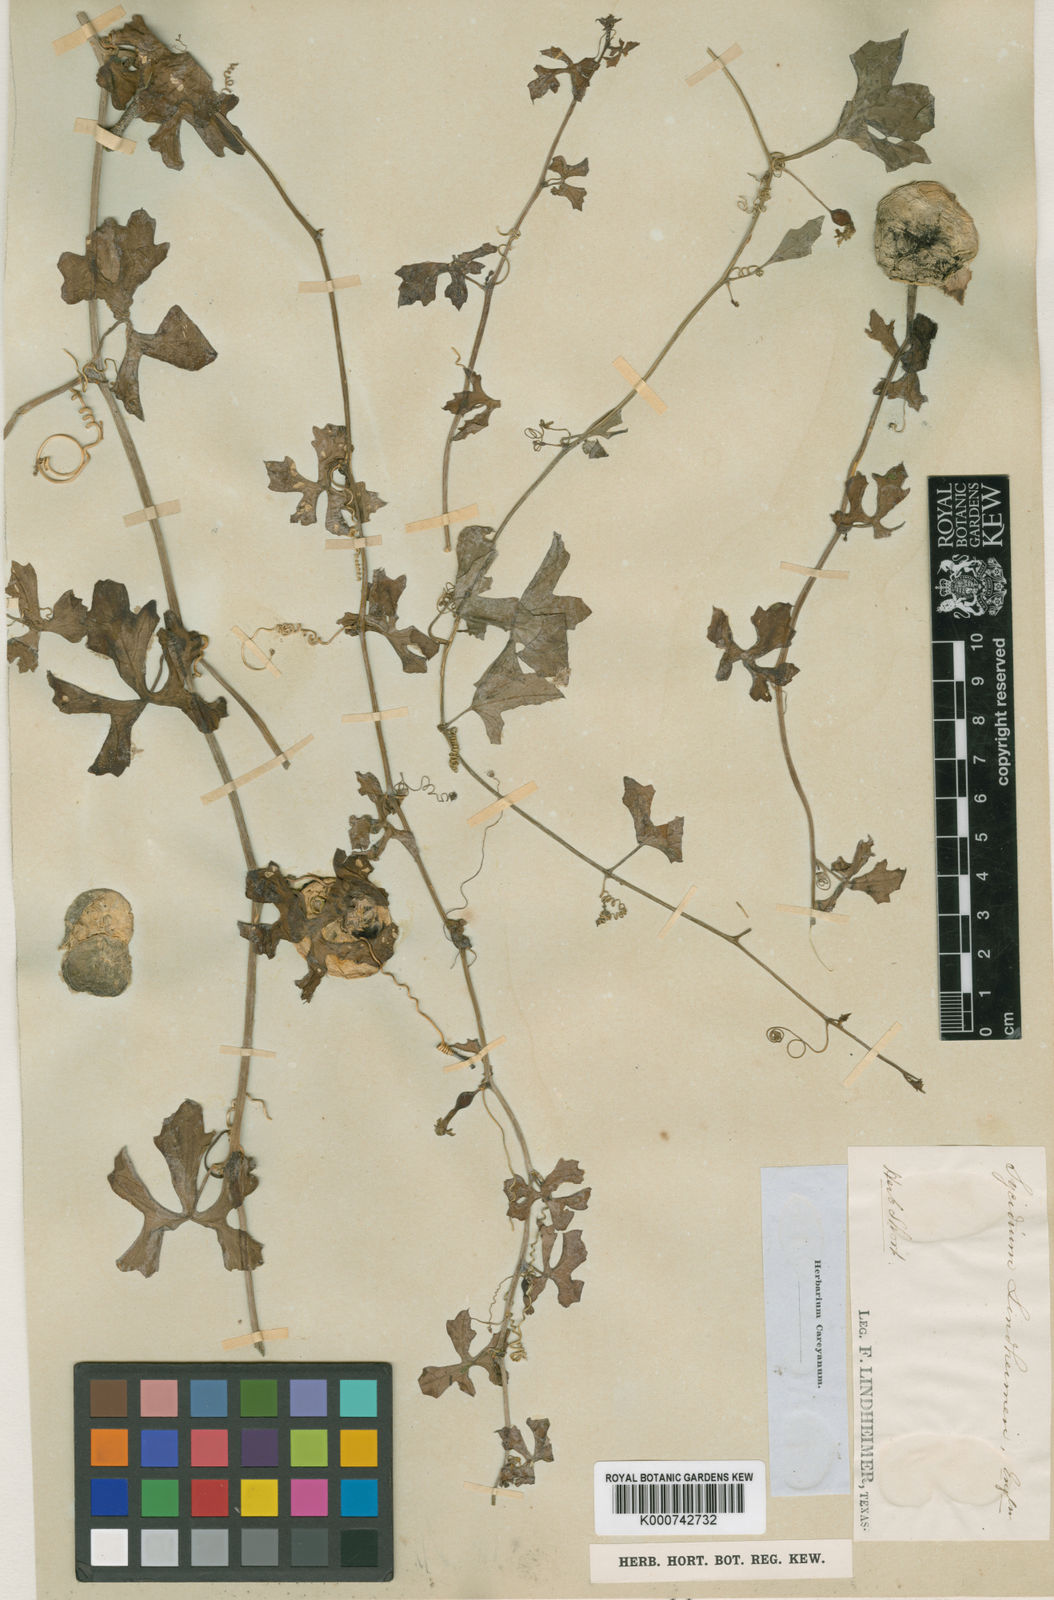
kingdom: Plantae
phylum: Tracheophyta
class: Magnoliopsida
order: Cucurbitales
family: Cucurbitaceae
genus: Ibervillea
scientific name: Ibervillea lindheimeri
